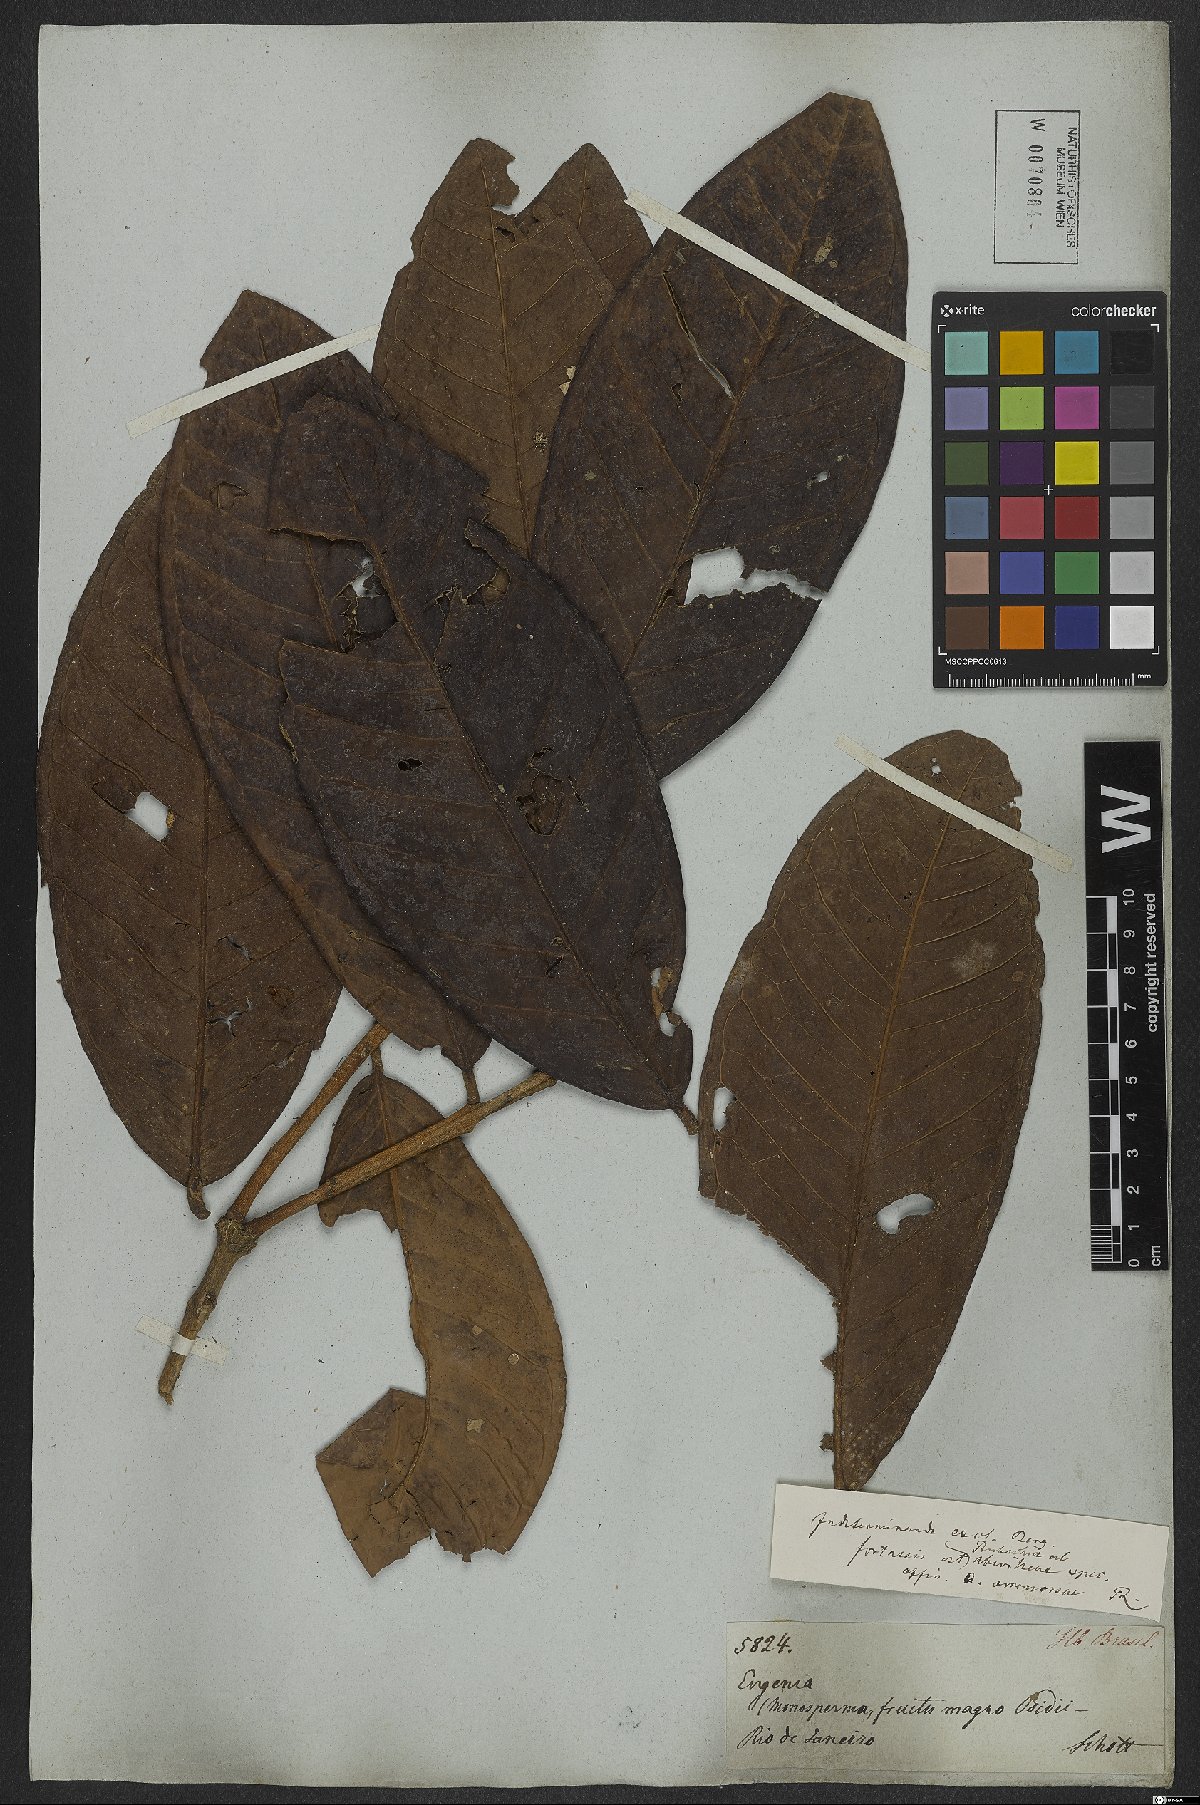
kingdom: Plantae
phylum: Tracheophyta
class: Magnoliopsida
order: Myrtales
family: Myrtaceae
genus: Eugenia
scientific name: Eugenia umbrosa
